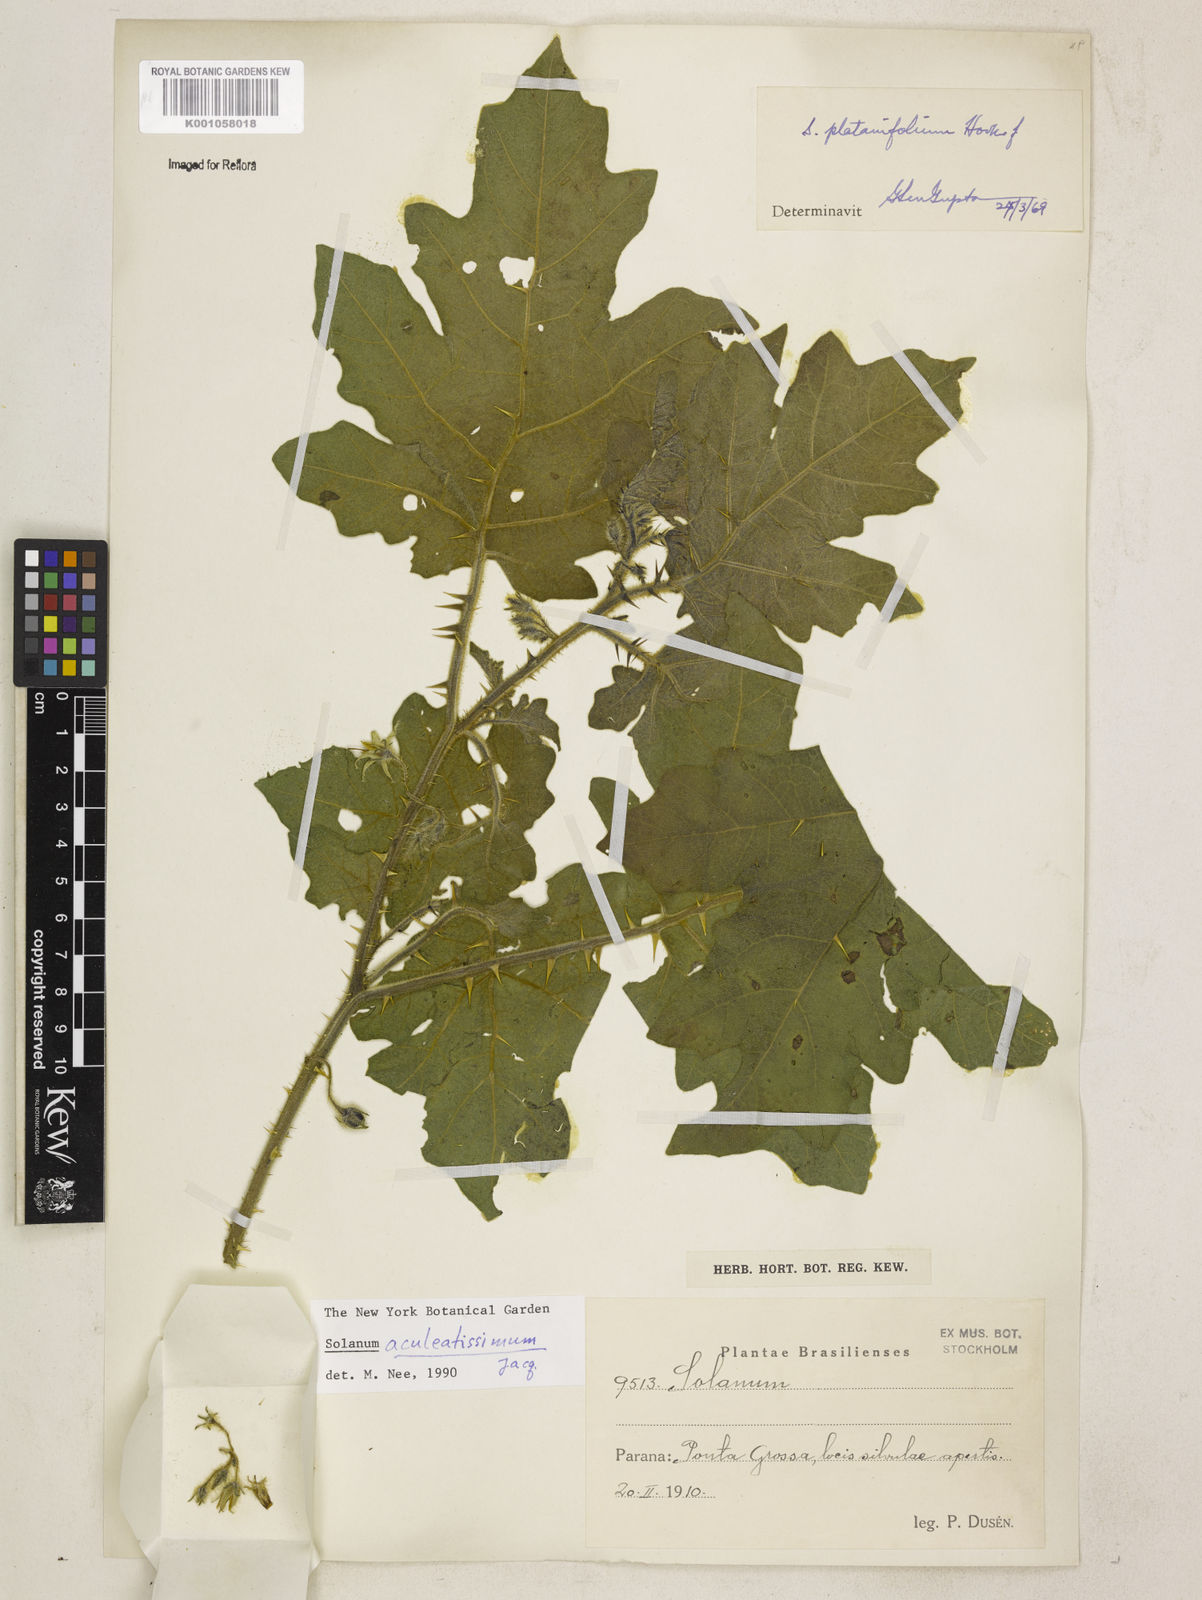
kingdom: Plantae
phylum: Tracheophyta
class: Magnoliopsida
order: Solanales
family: Solanaceae
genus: Solanum
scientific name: Solanum aculeatissimum
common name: Dutch eggplant
